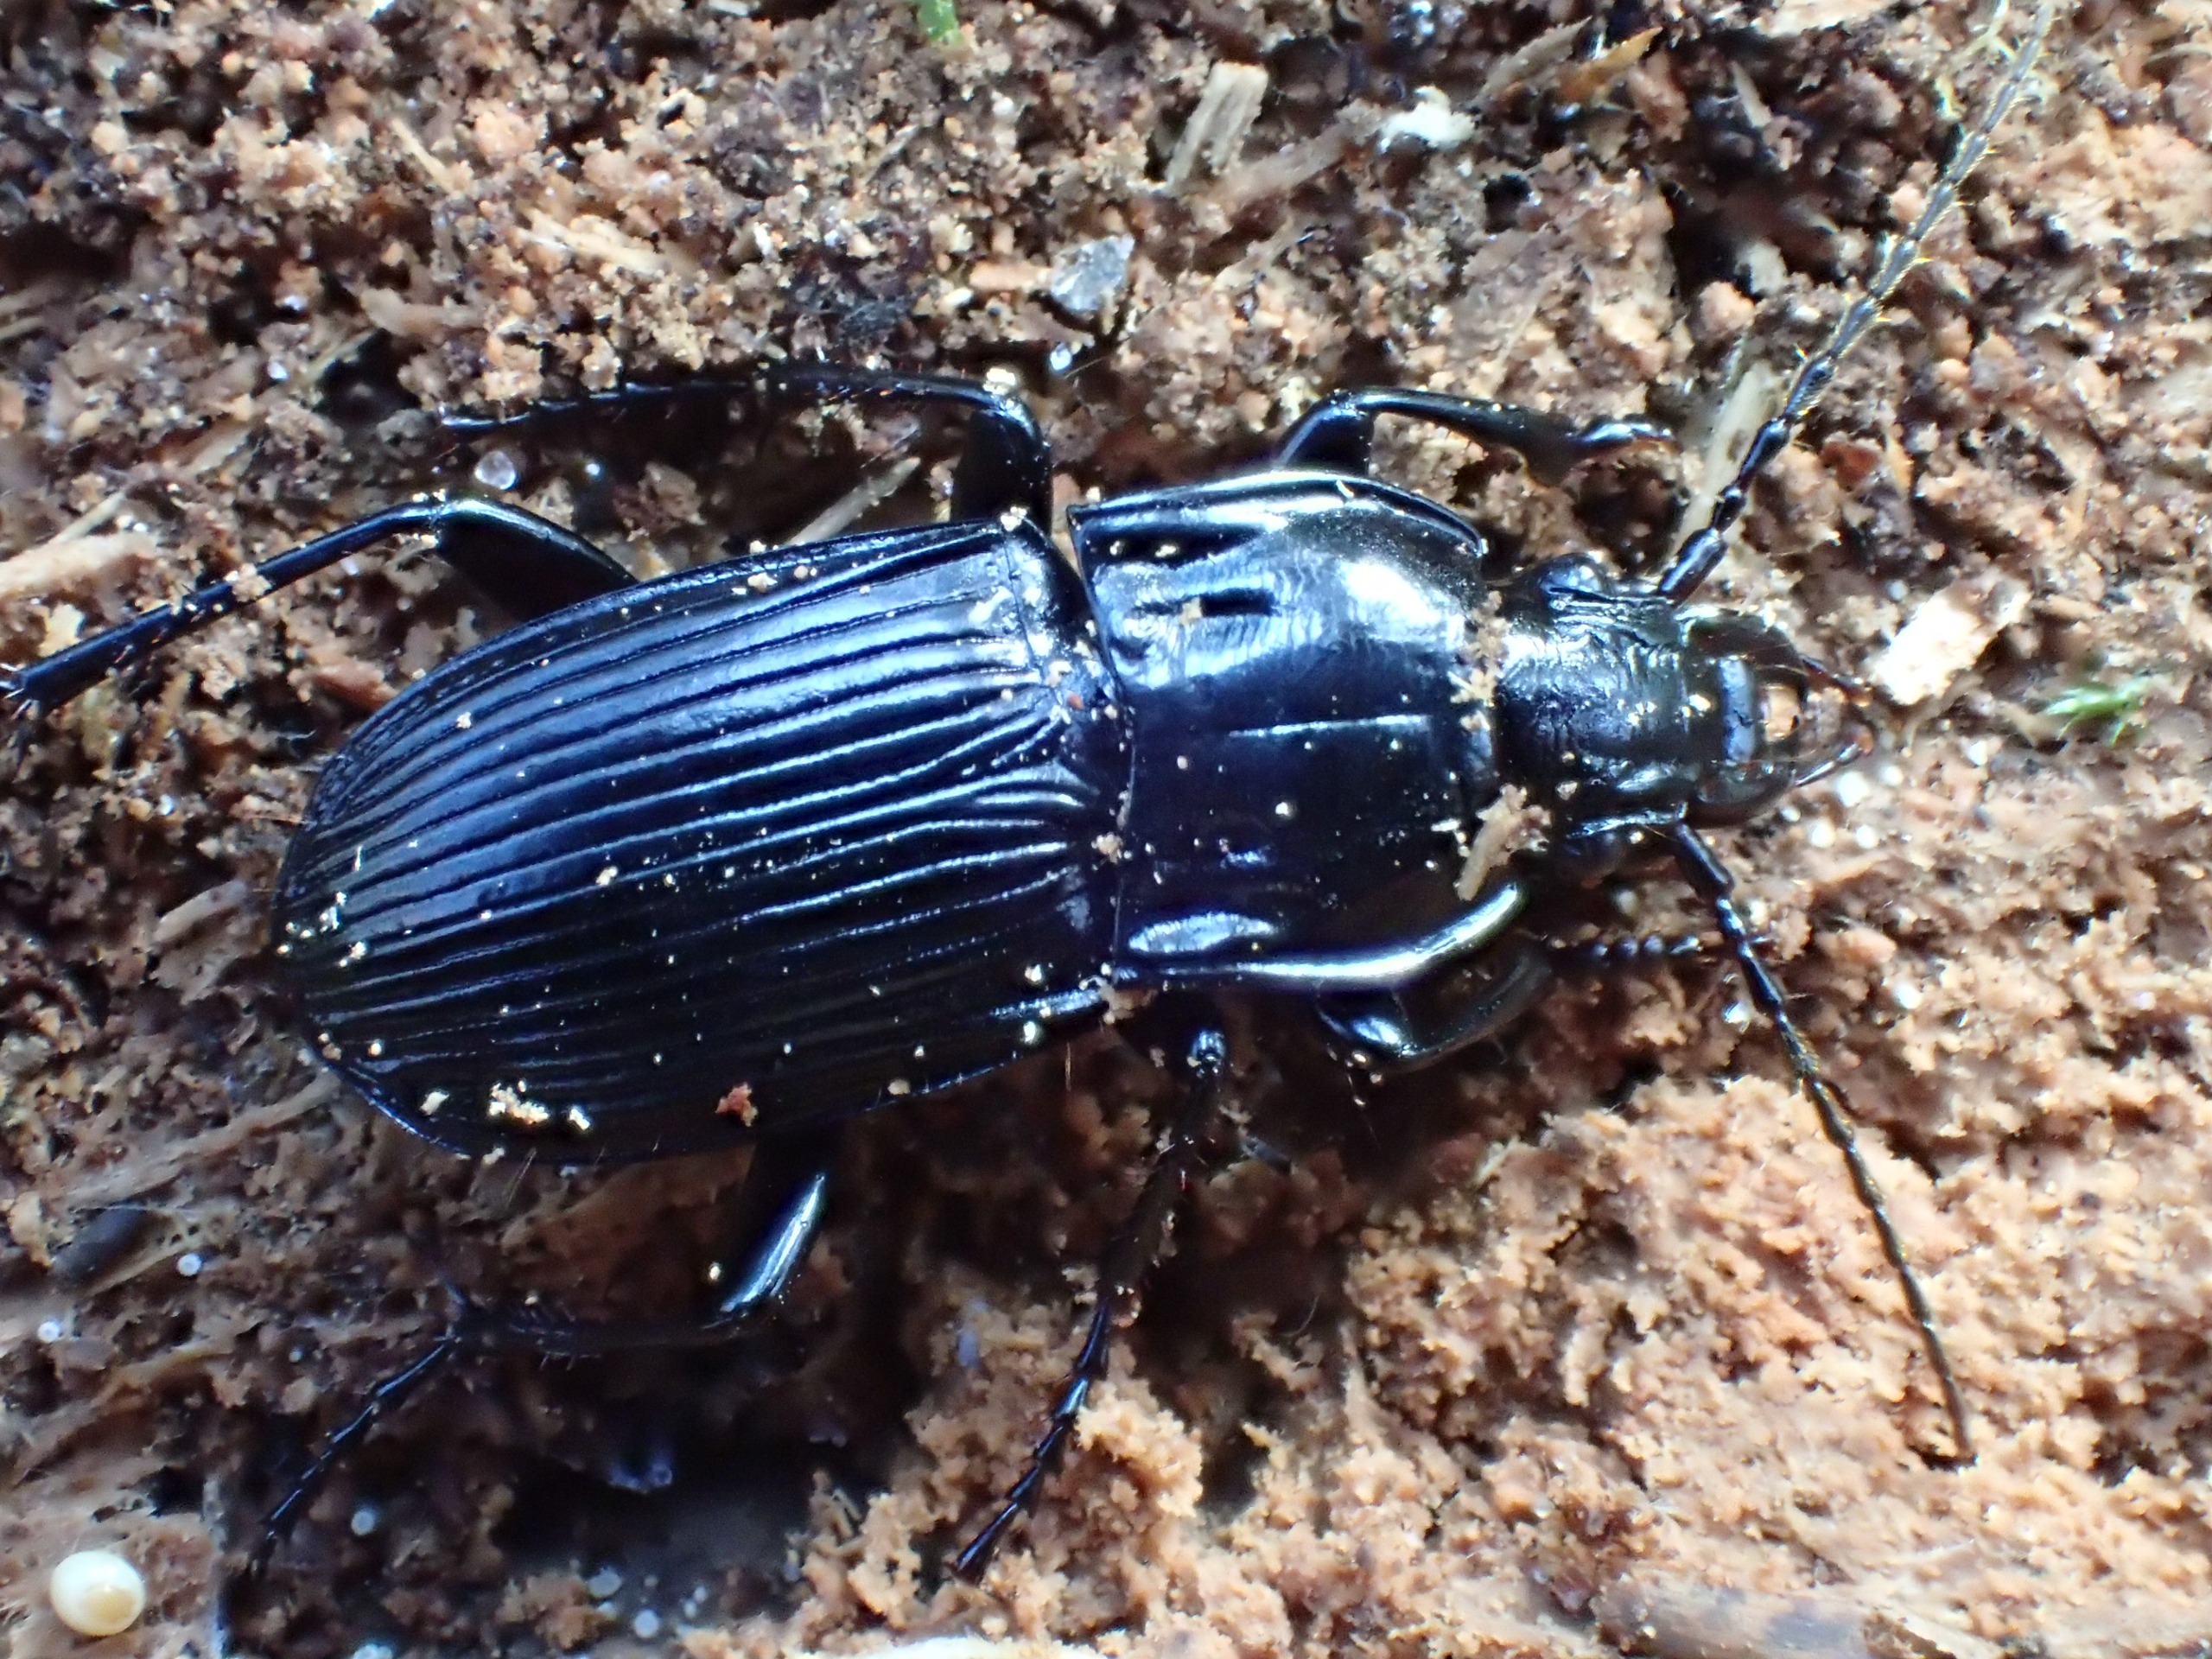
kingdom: Animalia
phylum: Arthropoda
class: Insecta
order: Coleoptera
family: Carabidae
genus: Abax
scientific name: Abax parallelepipedus
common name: Bred muldløber
